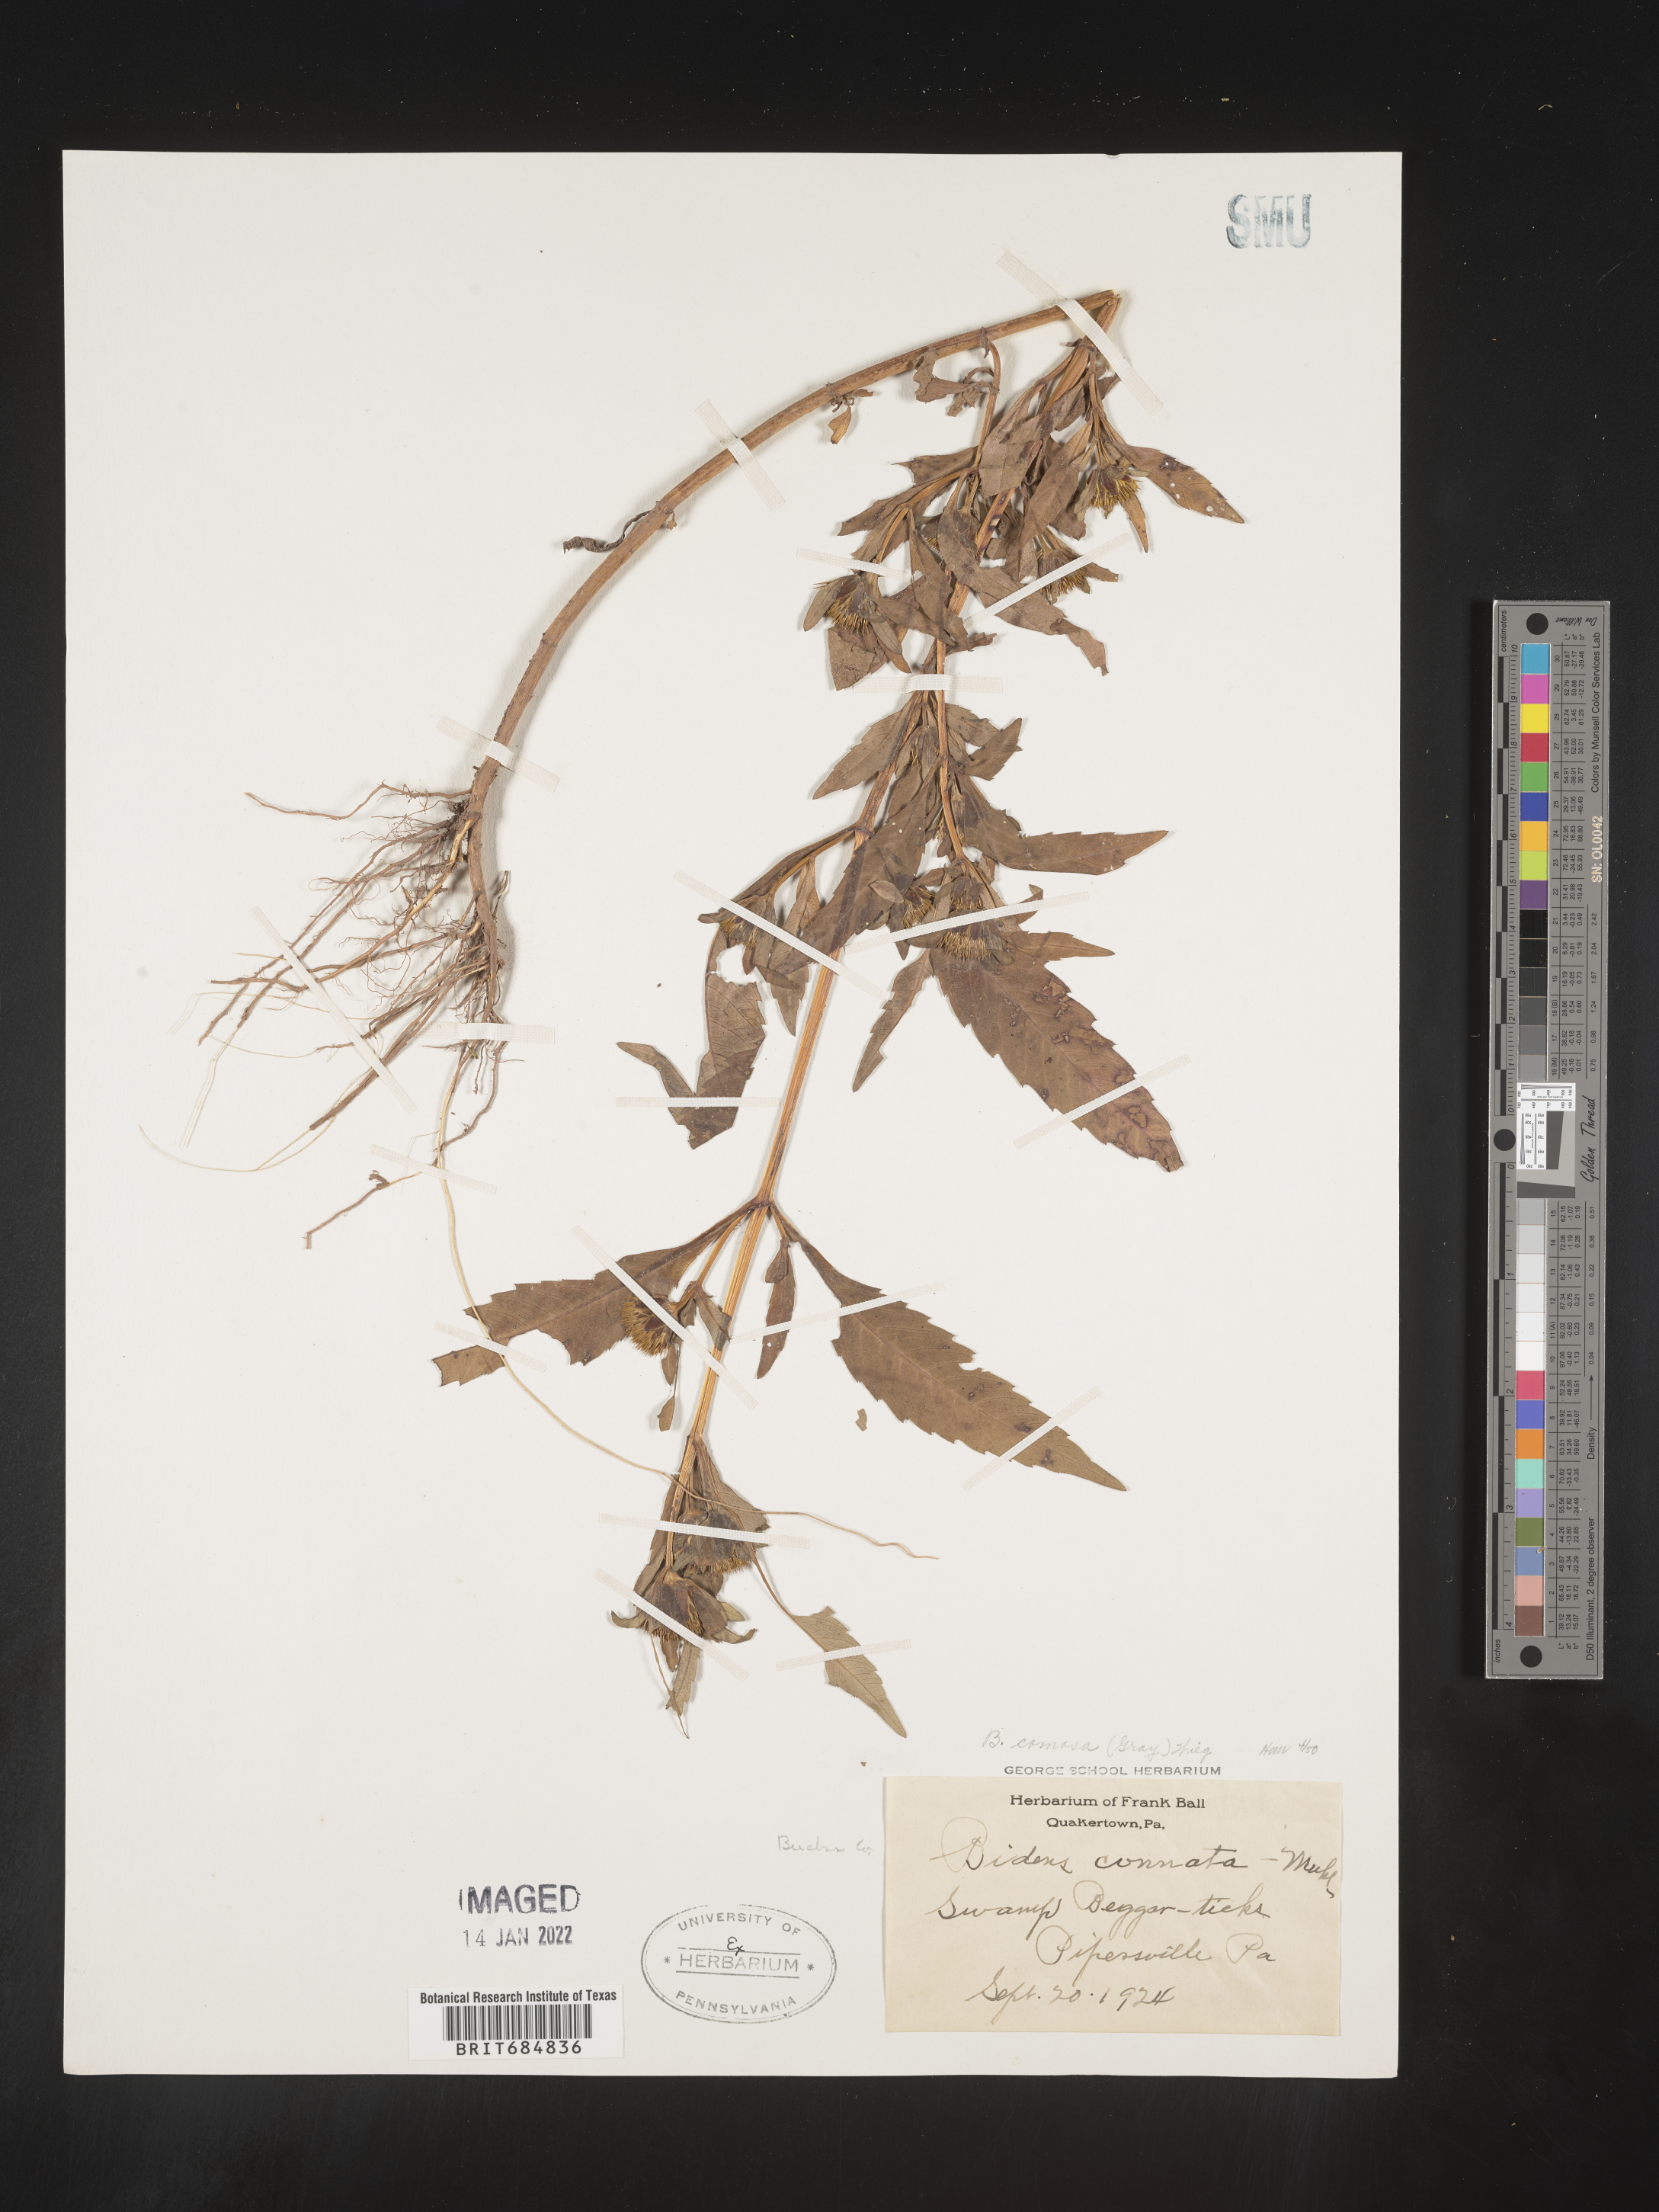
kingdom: Plantae
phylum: Tracheophyta
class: Magnoliopsida
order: Asterales
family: Asteraceae
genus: Bidens
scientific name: Bidens tripartita
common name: Trifid bur-marigold
